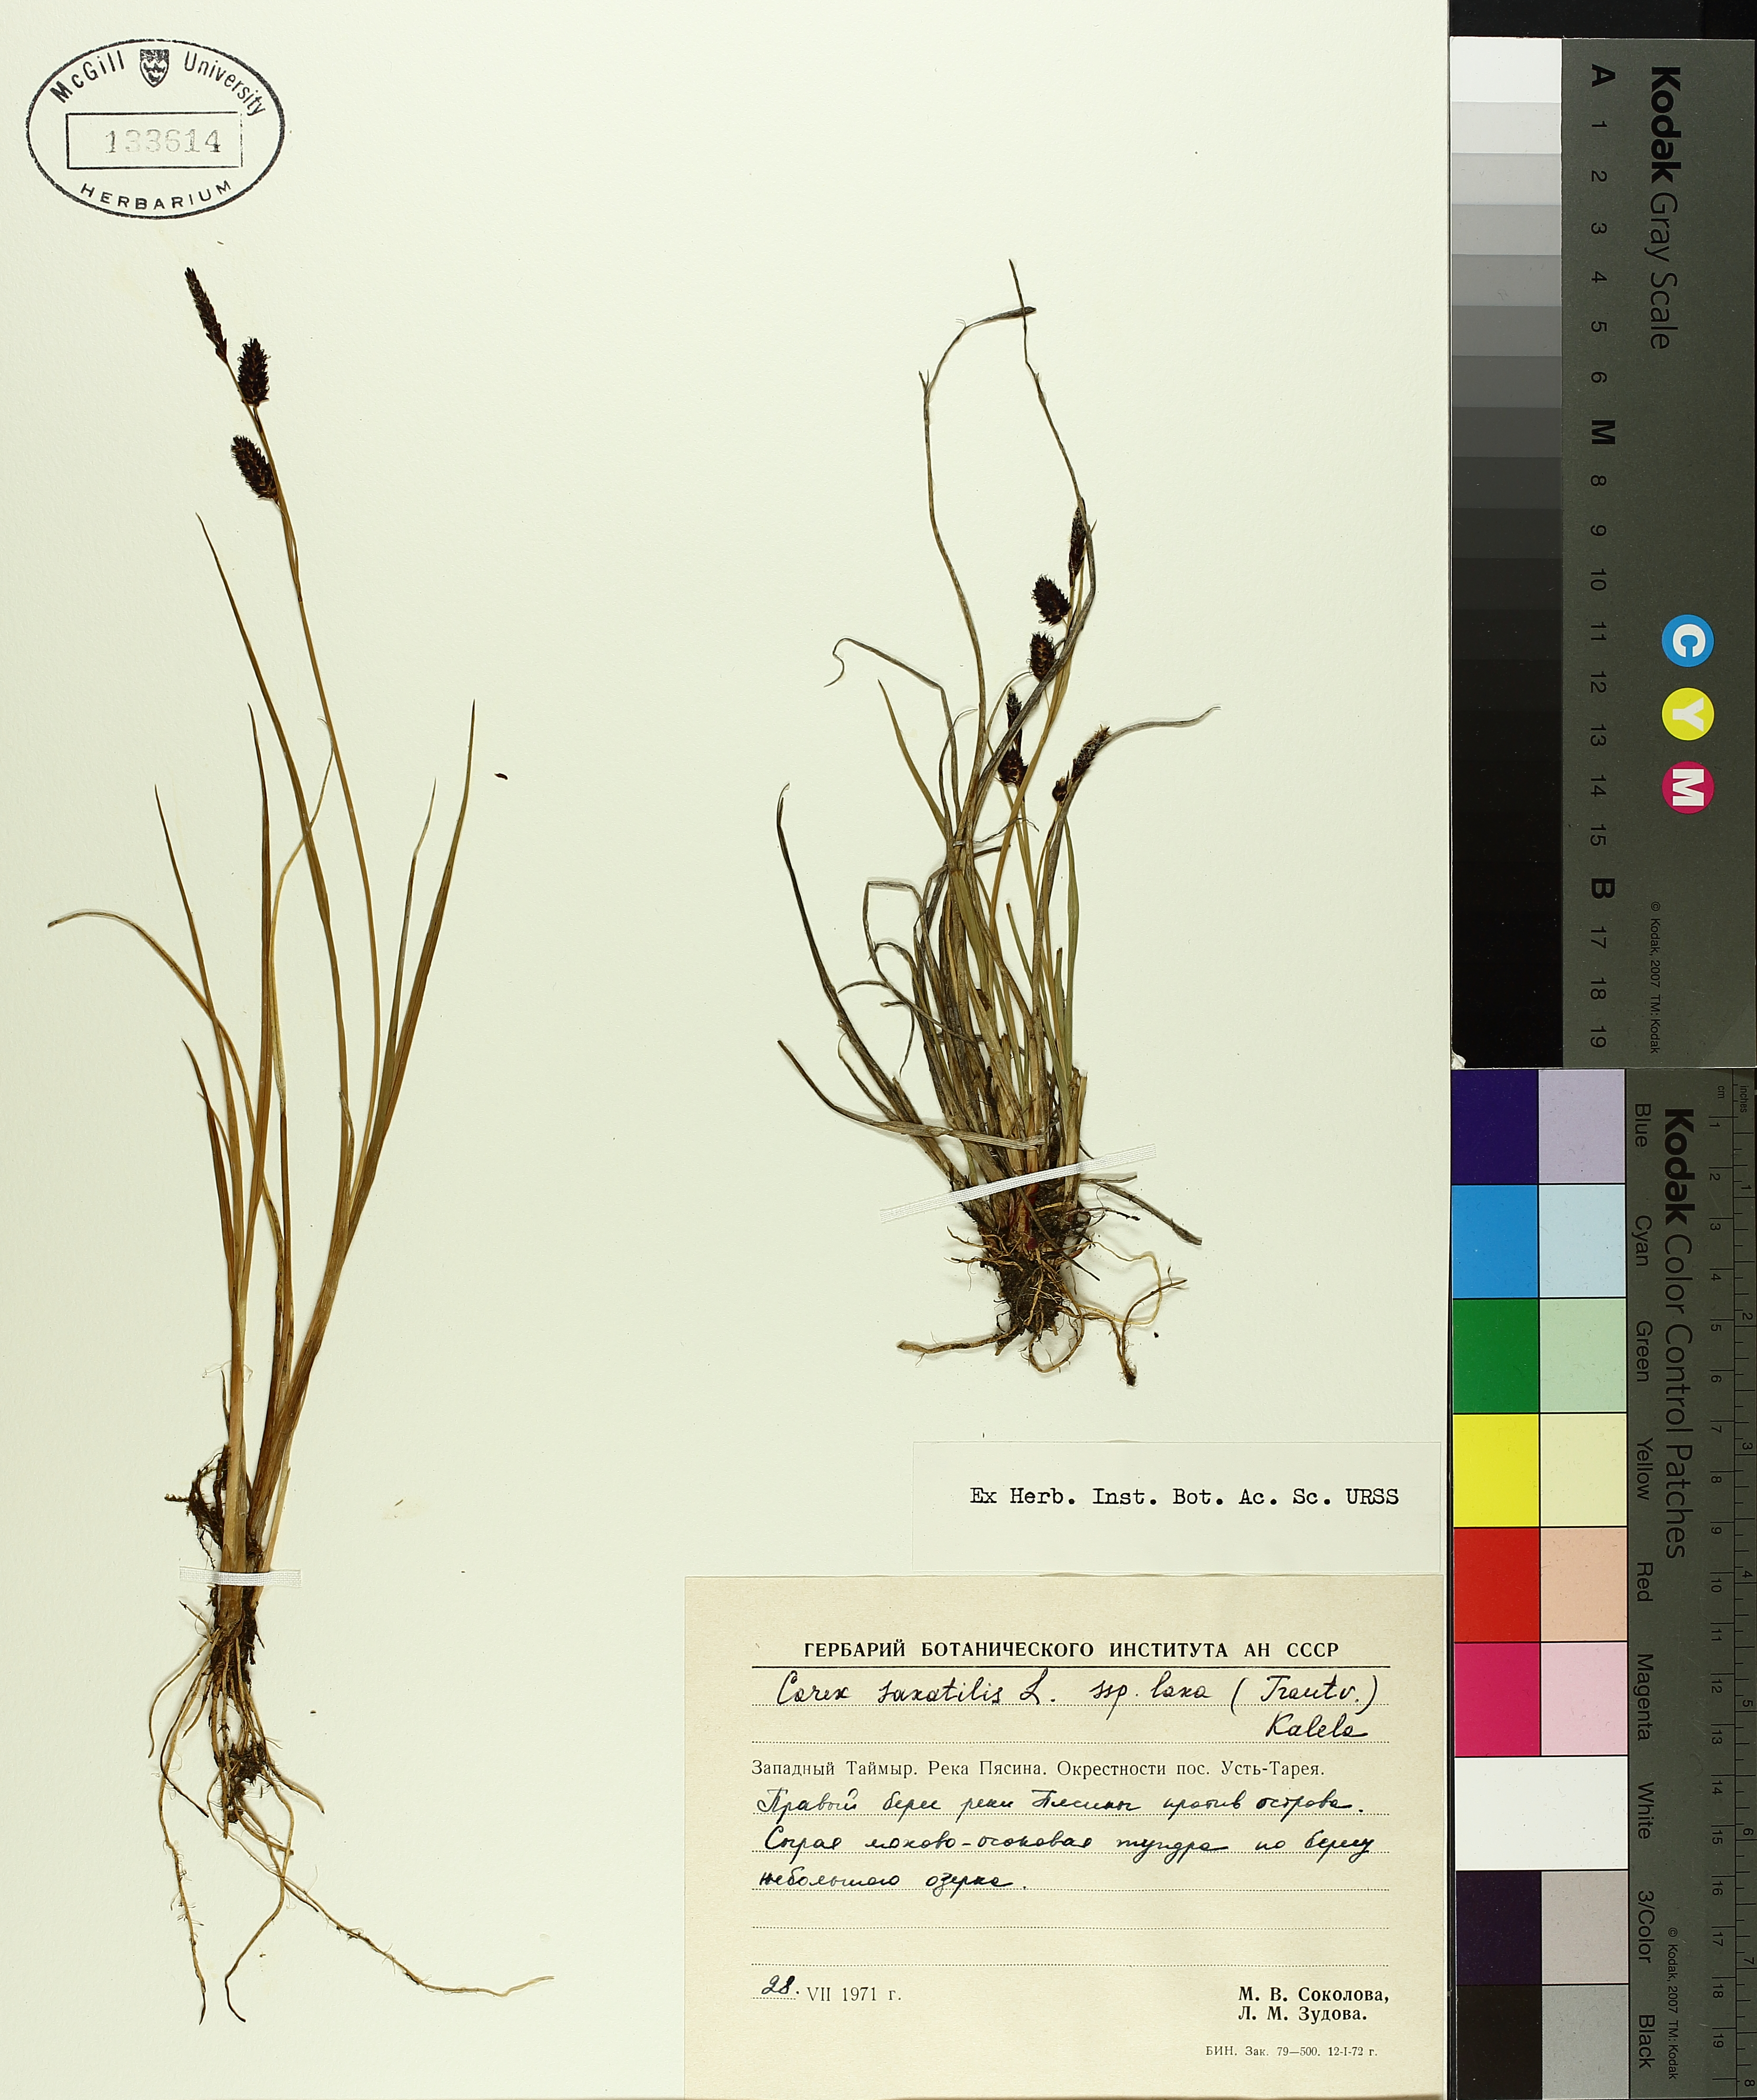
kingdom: Plantae
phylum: Tracheophyta
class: Liliopsida
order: Poales
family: Cyperaceae
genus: Carex
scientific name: Carex saxatilis
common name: Russet sedge
